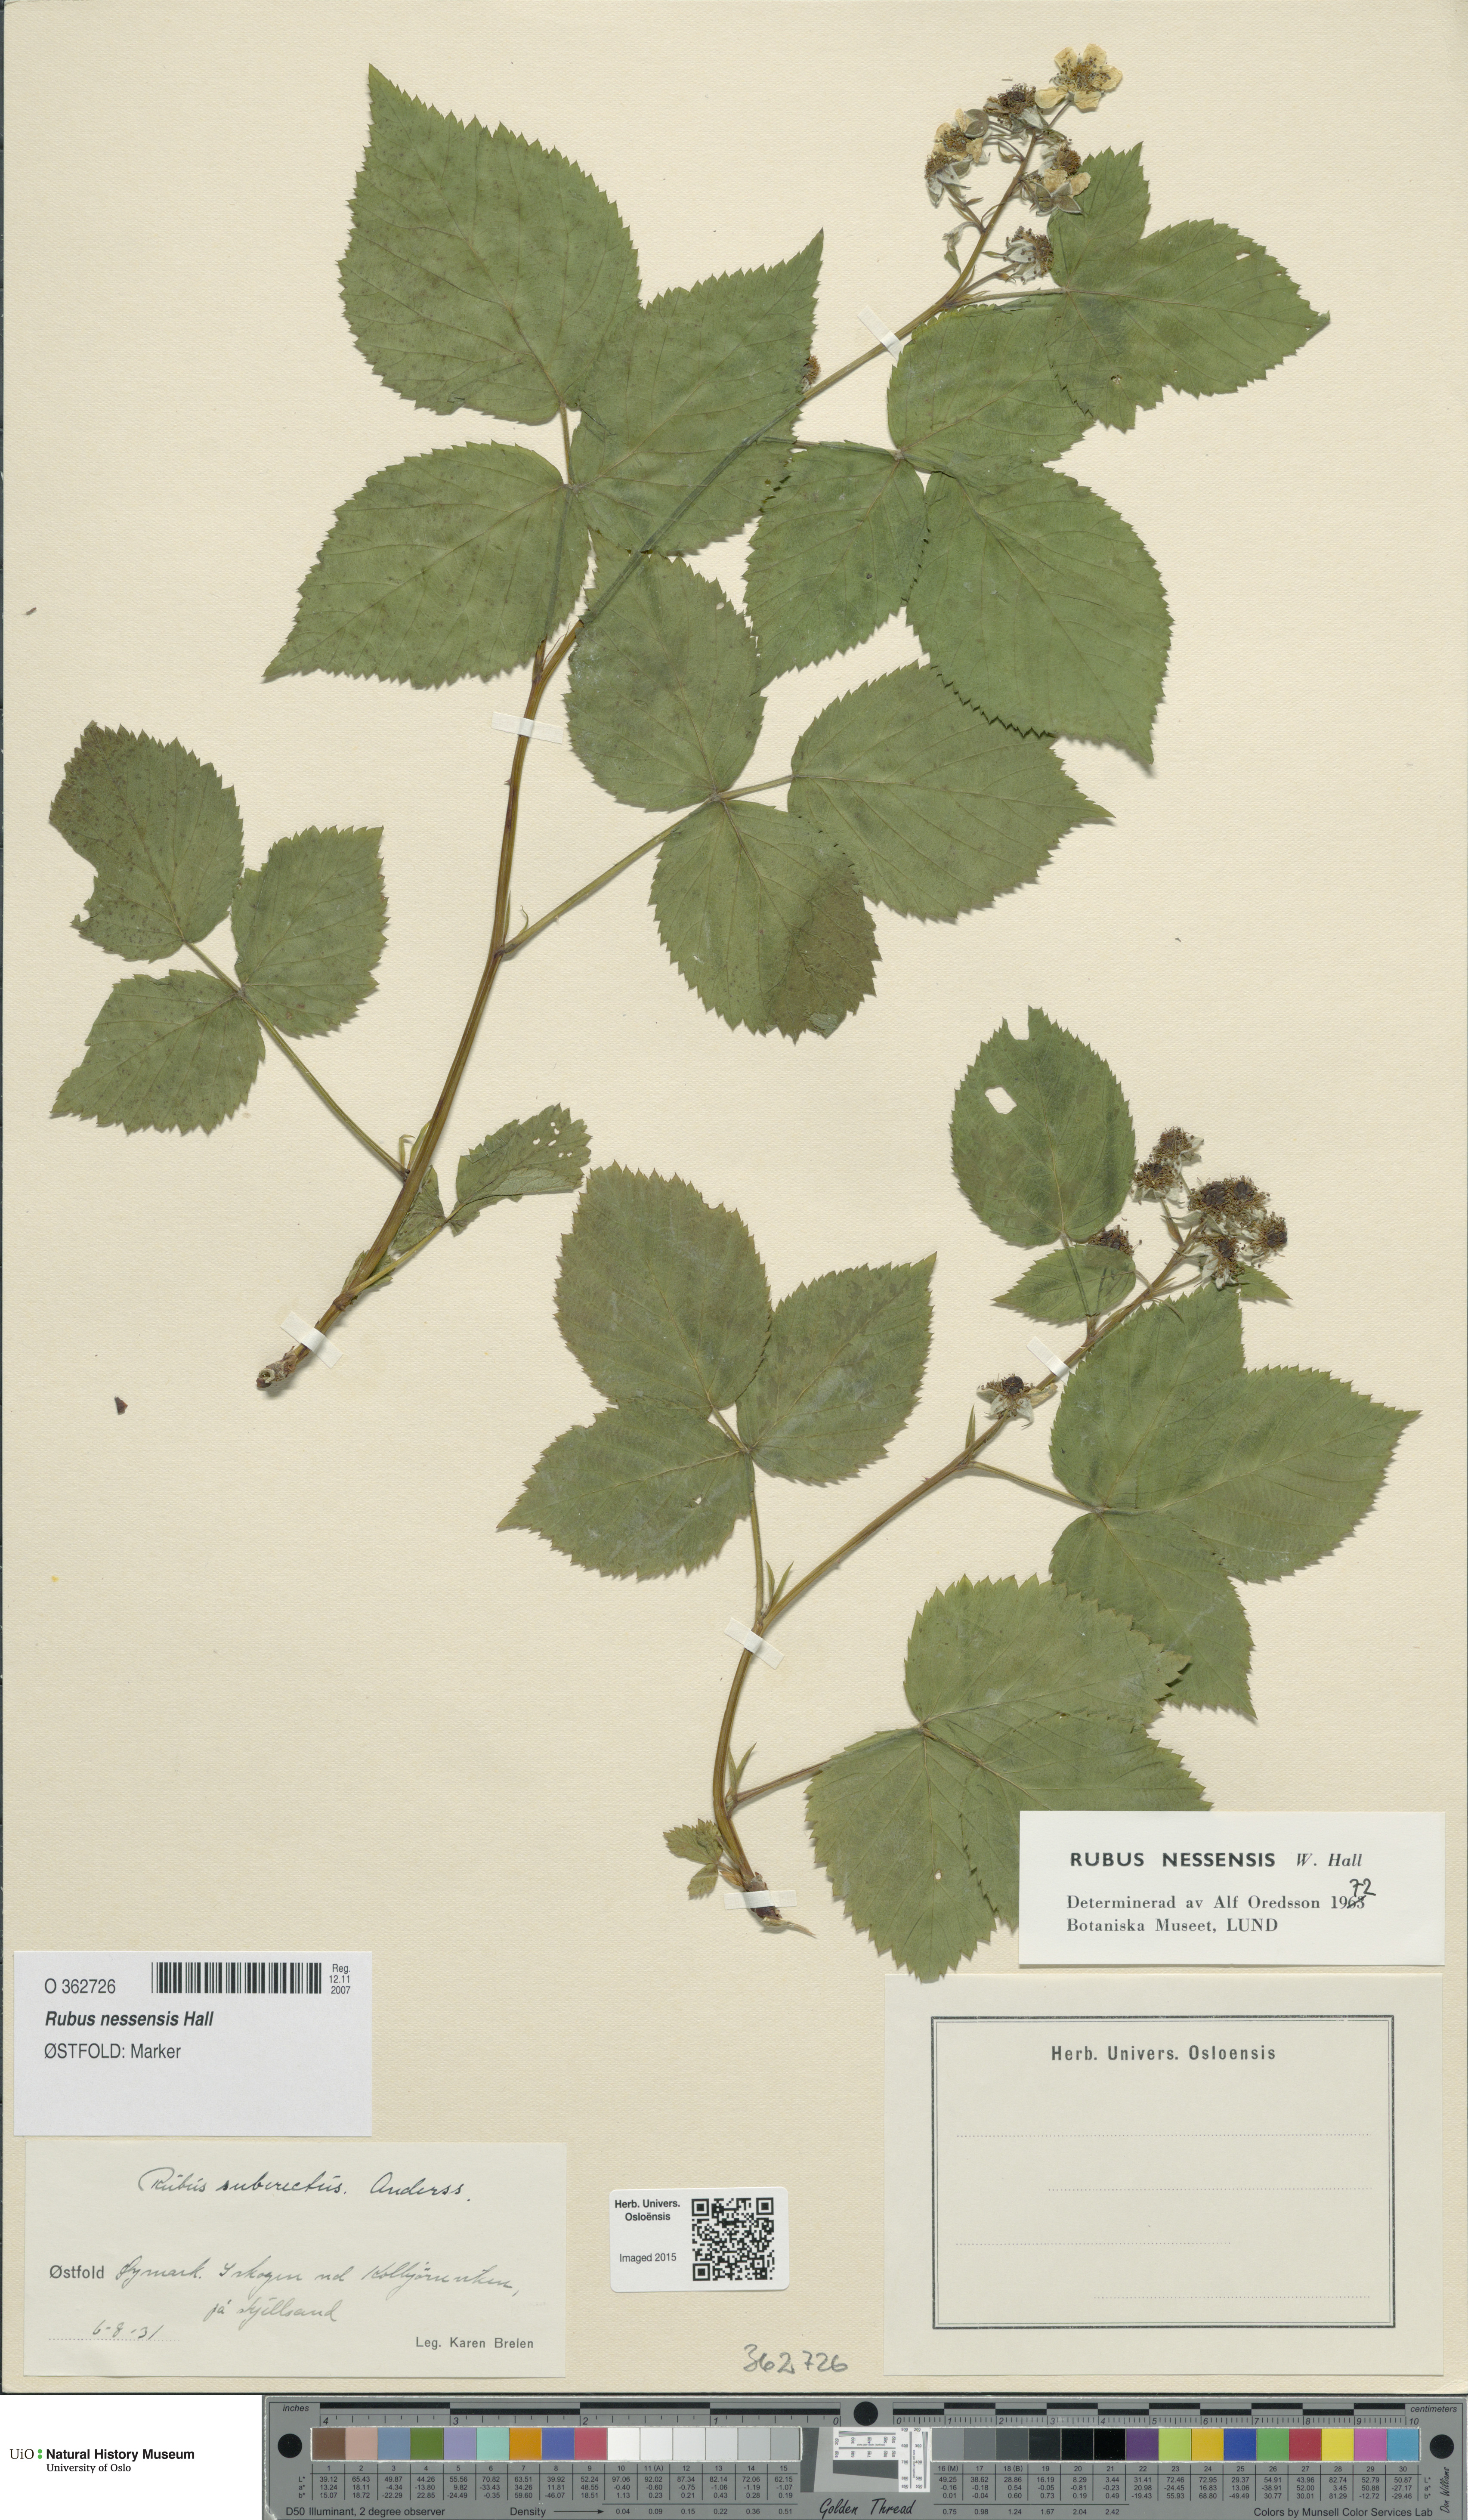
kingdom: Plantae
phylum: Tracheophyta
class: Magnoliopsida
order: Rosales
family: Rosaceae
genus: Rubus
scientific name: Rubus polonicus
